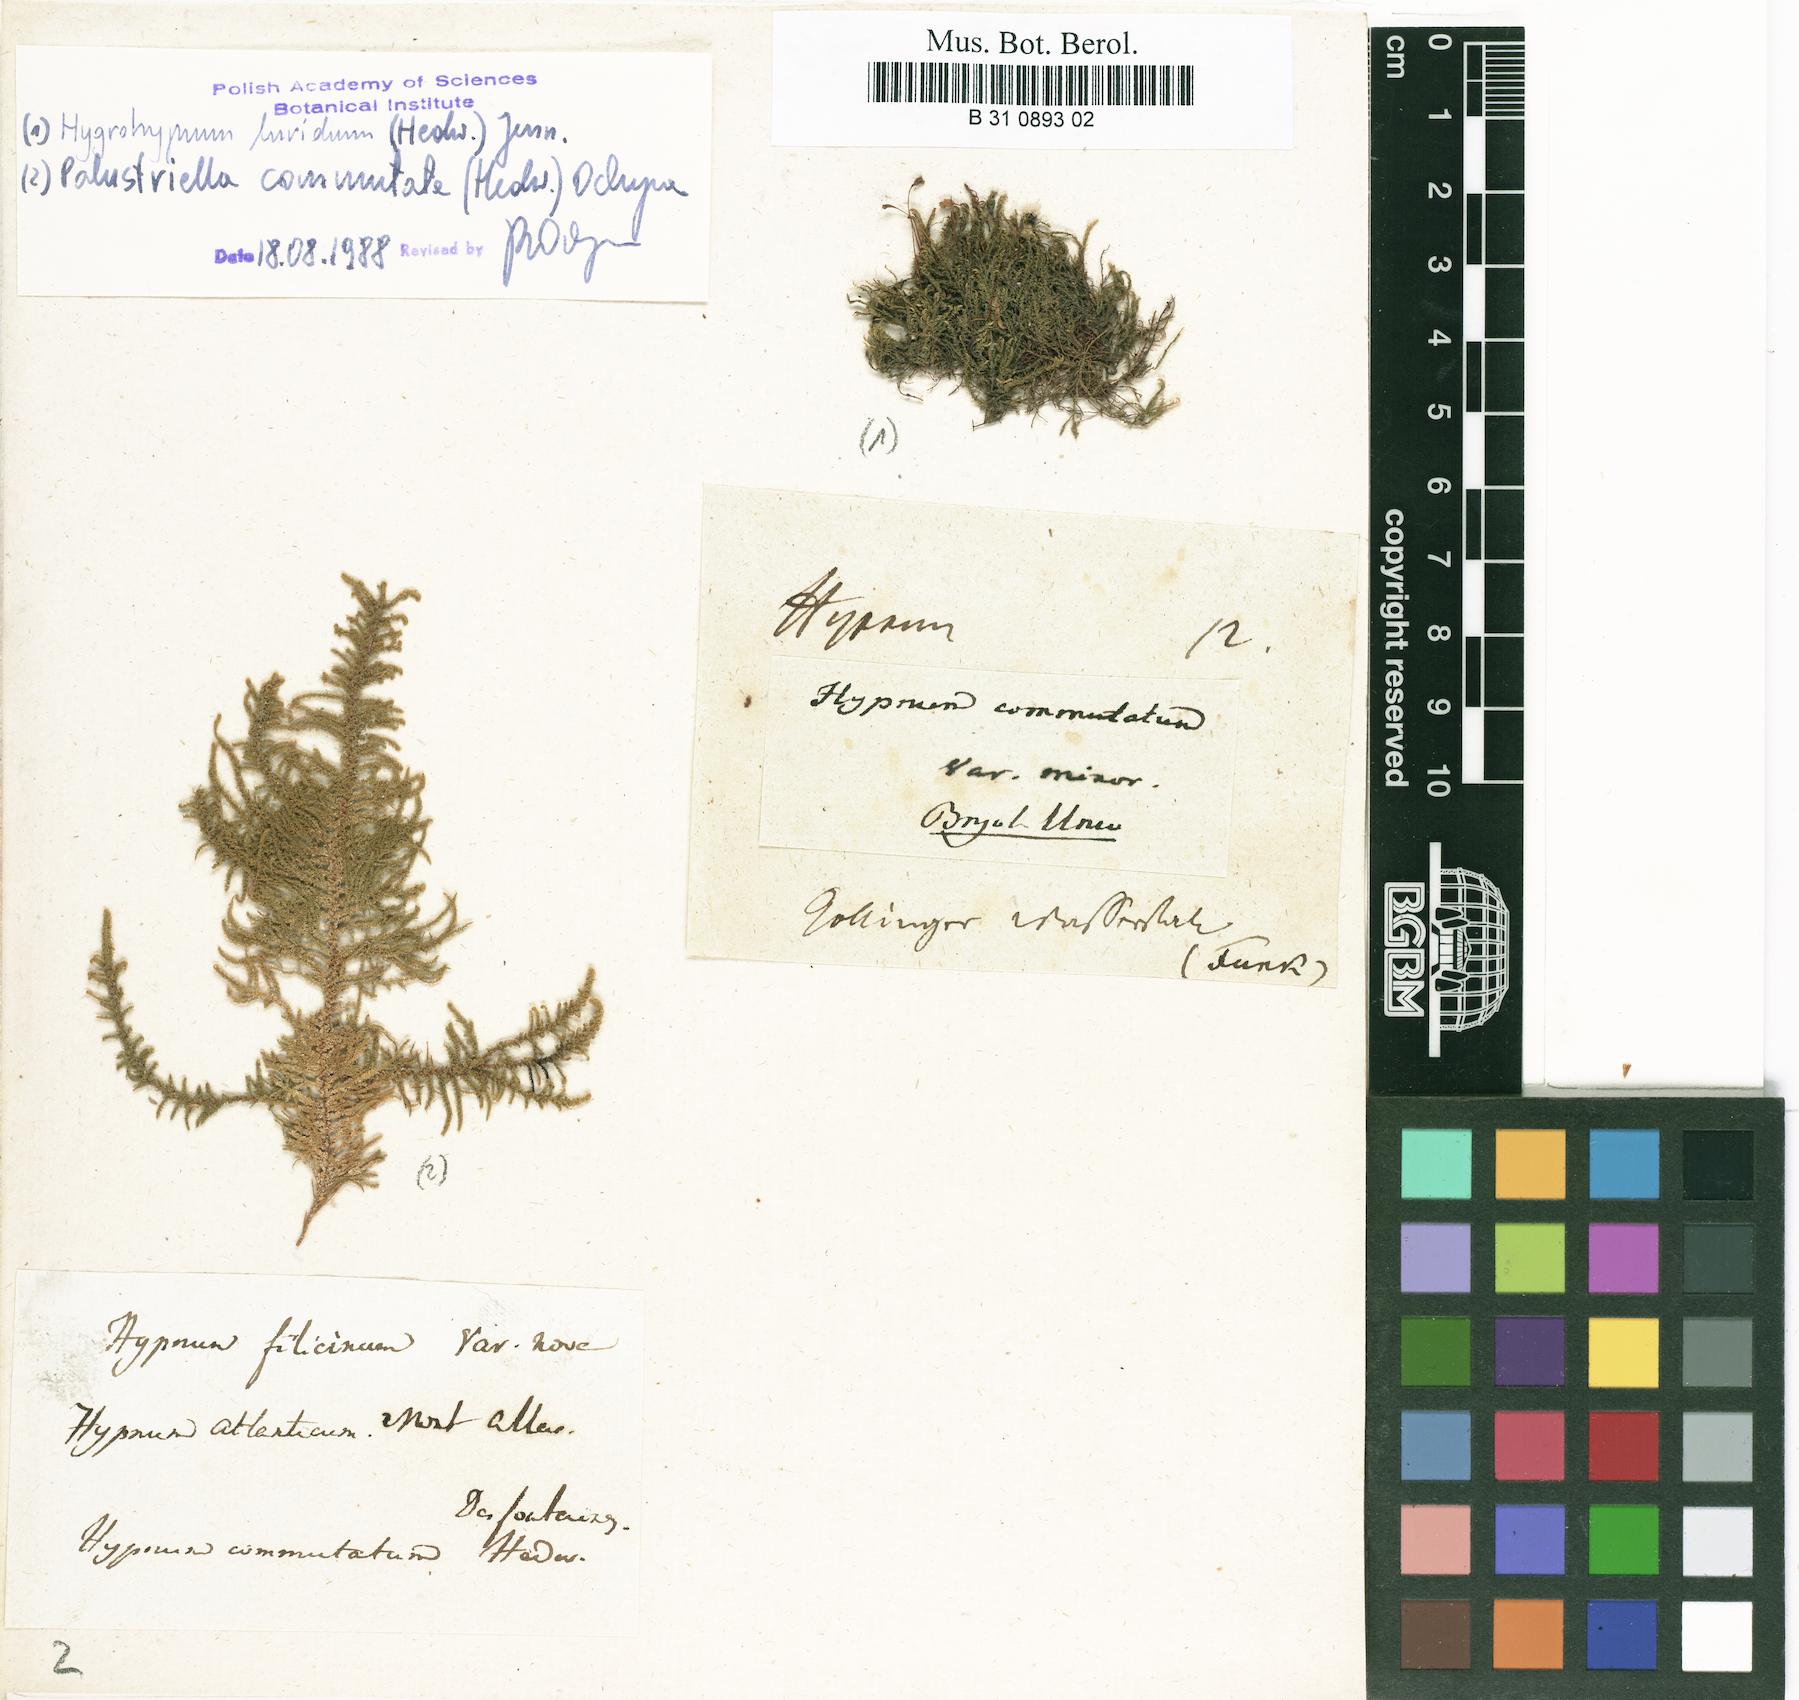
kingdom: Plantae
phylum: Bryophyta
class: Bryopsida
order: Hypnales
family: Amblystegiaceae
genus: Palustriella
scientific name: Palustriella commutata
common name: Curled hook-moss
